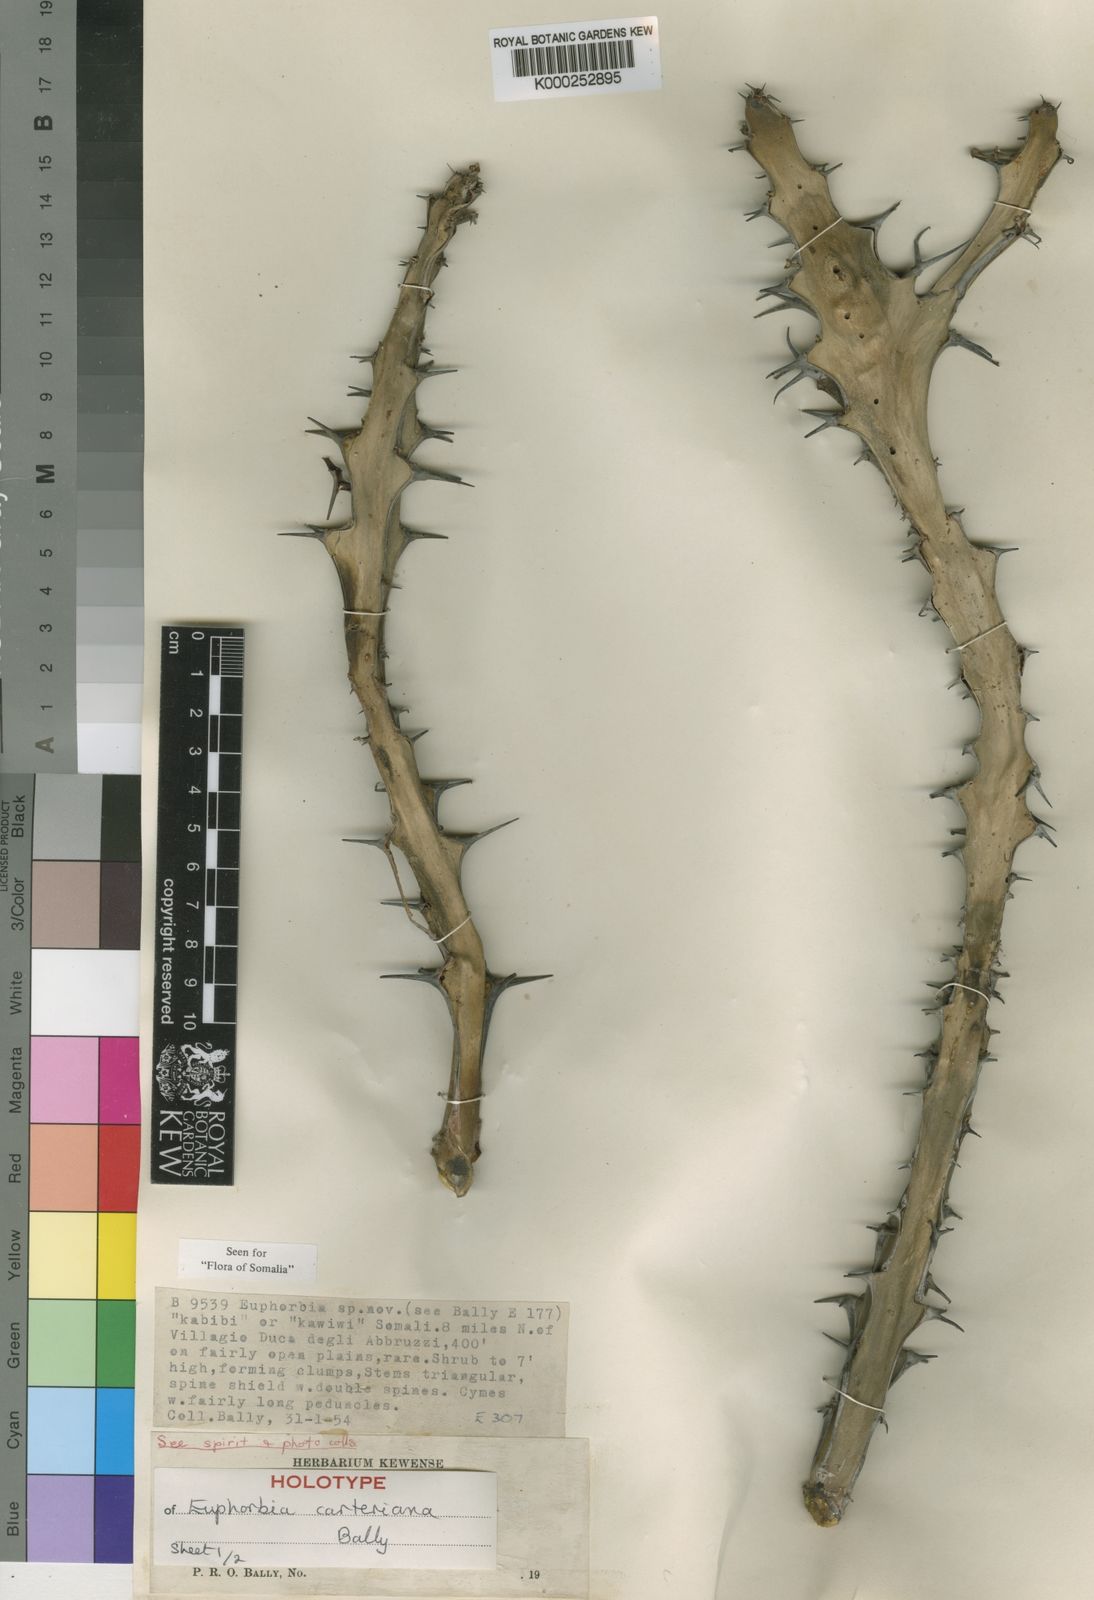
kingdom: Plantae
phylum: Tracheophyta
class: Magnoliopsida
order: Malpighiales
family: Euphorbiaceae
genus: Euphorbia
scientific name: Euphorbia carteriana
